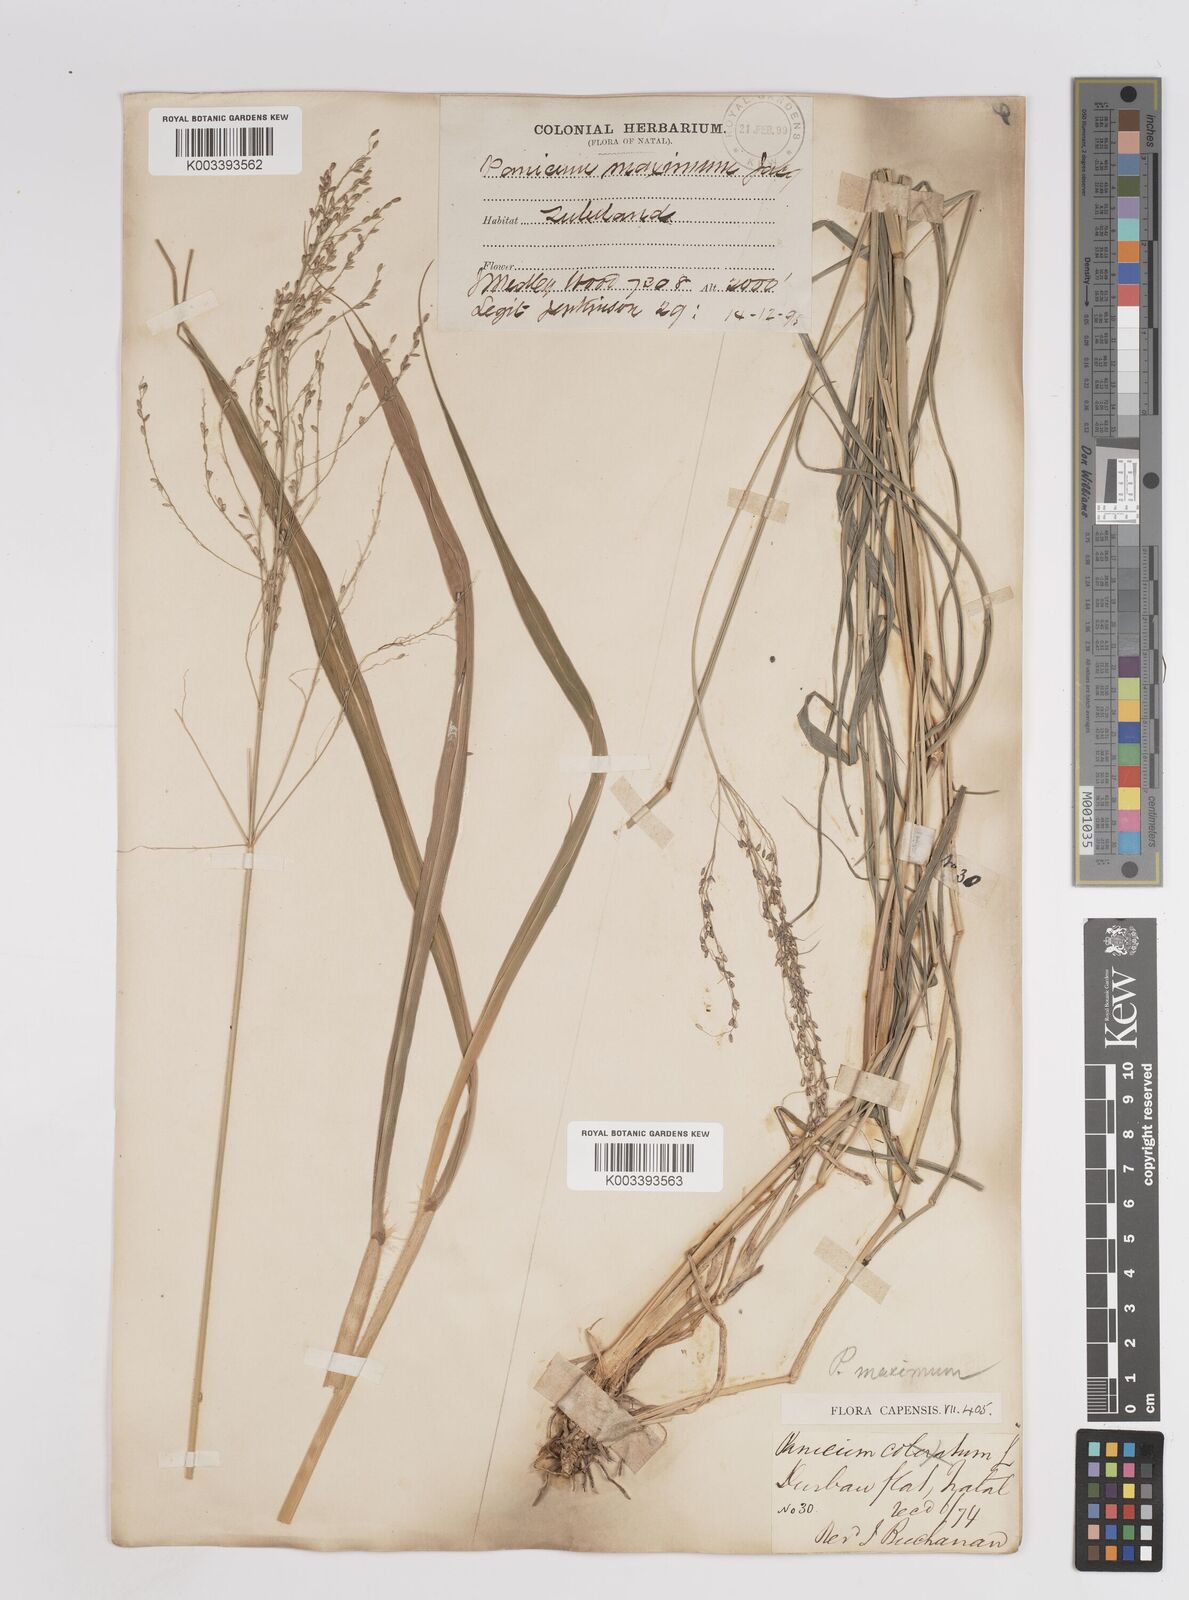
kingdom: Plantae
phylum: Tracheophyta
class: Liliopsida
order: Poales
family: Poaceae
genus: Megathyrsus
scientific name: Megathyrsus maximus
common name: Guineagrass
